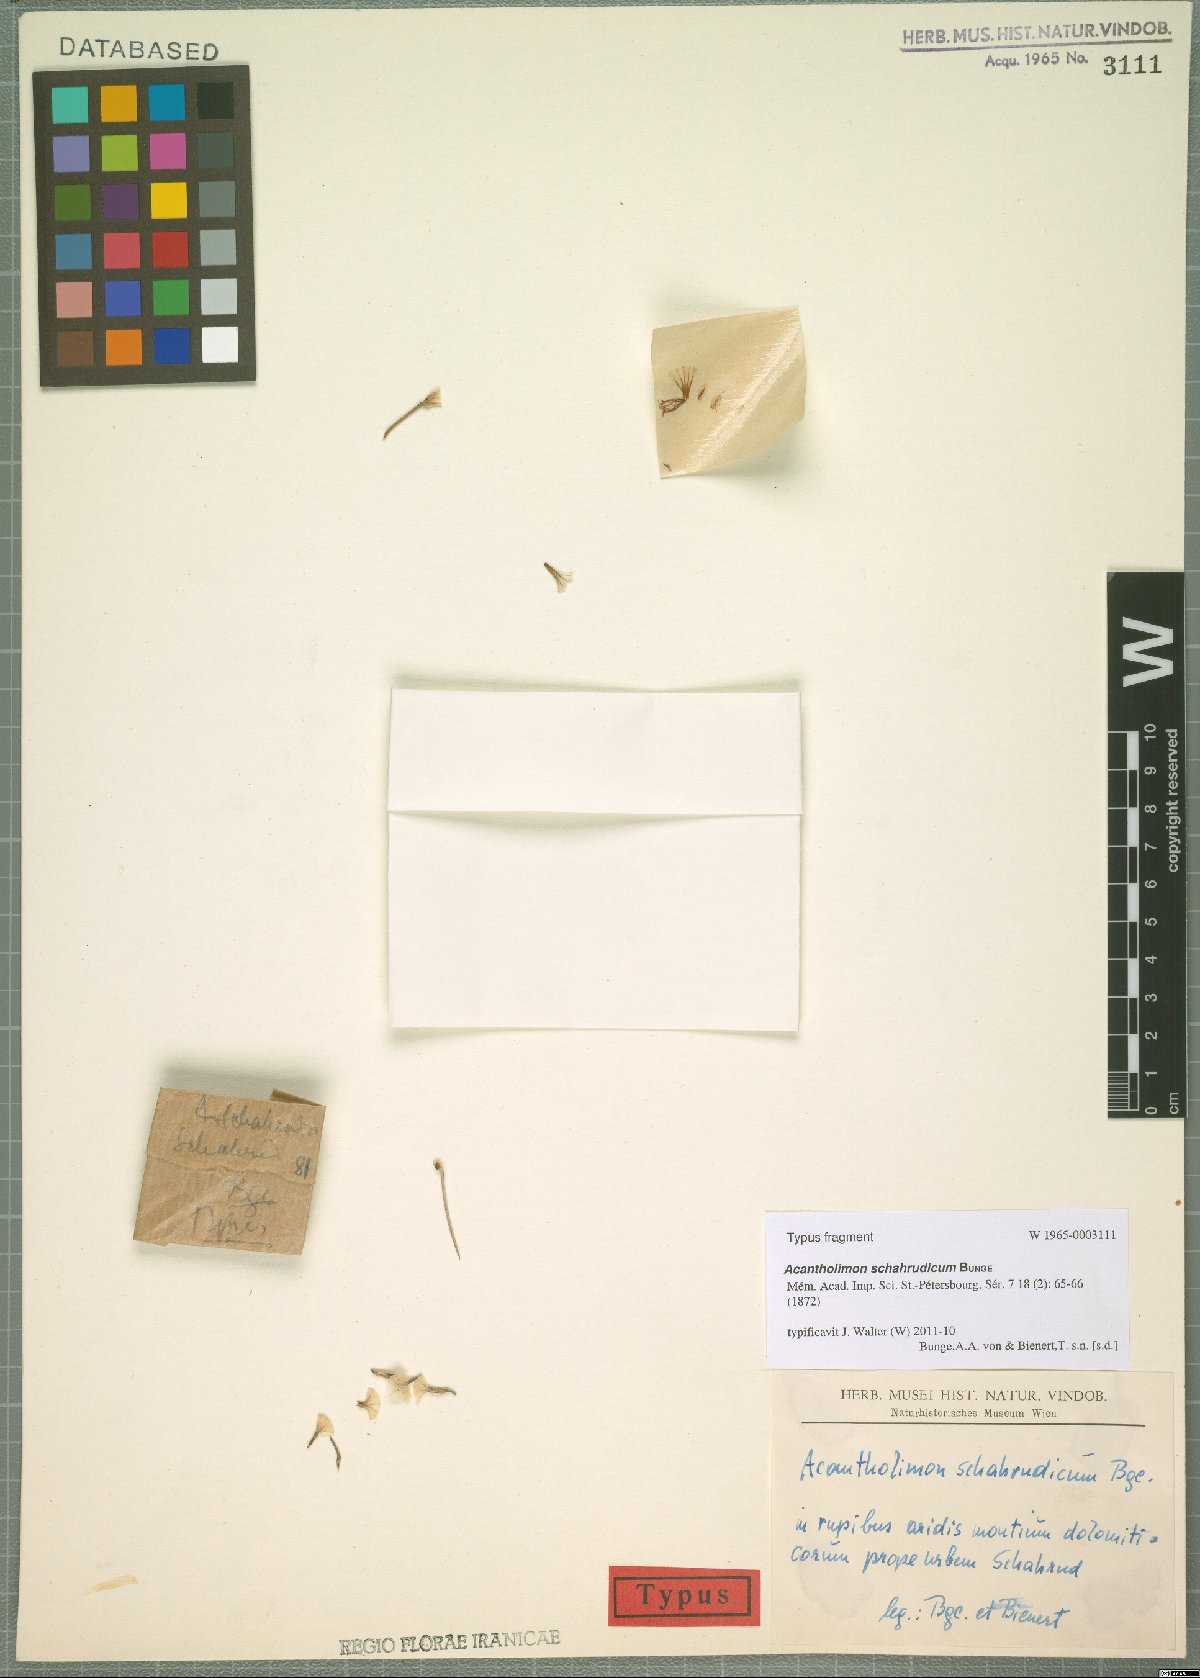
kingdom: Plantae
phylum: Tracheophyta
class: Magnoliopsida
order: Caryophyllales
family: Plumbaginaceae
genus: Acantholimon
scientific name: Acantholimon schahrudicum
